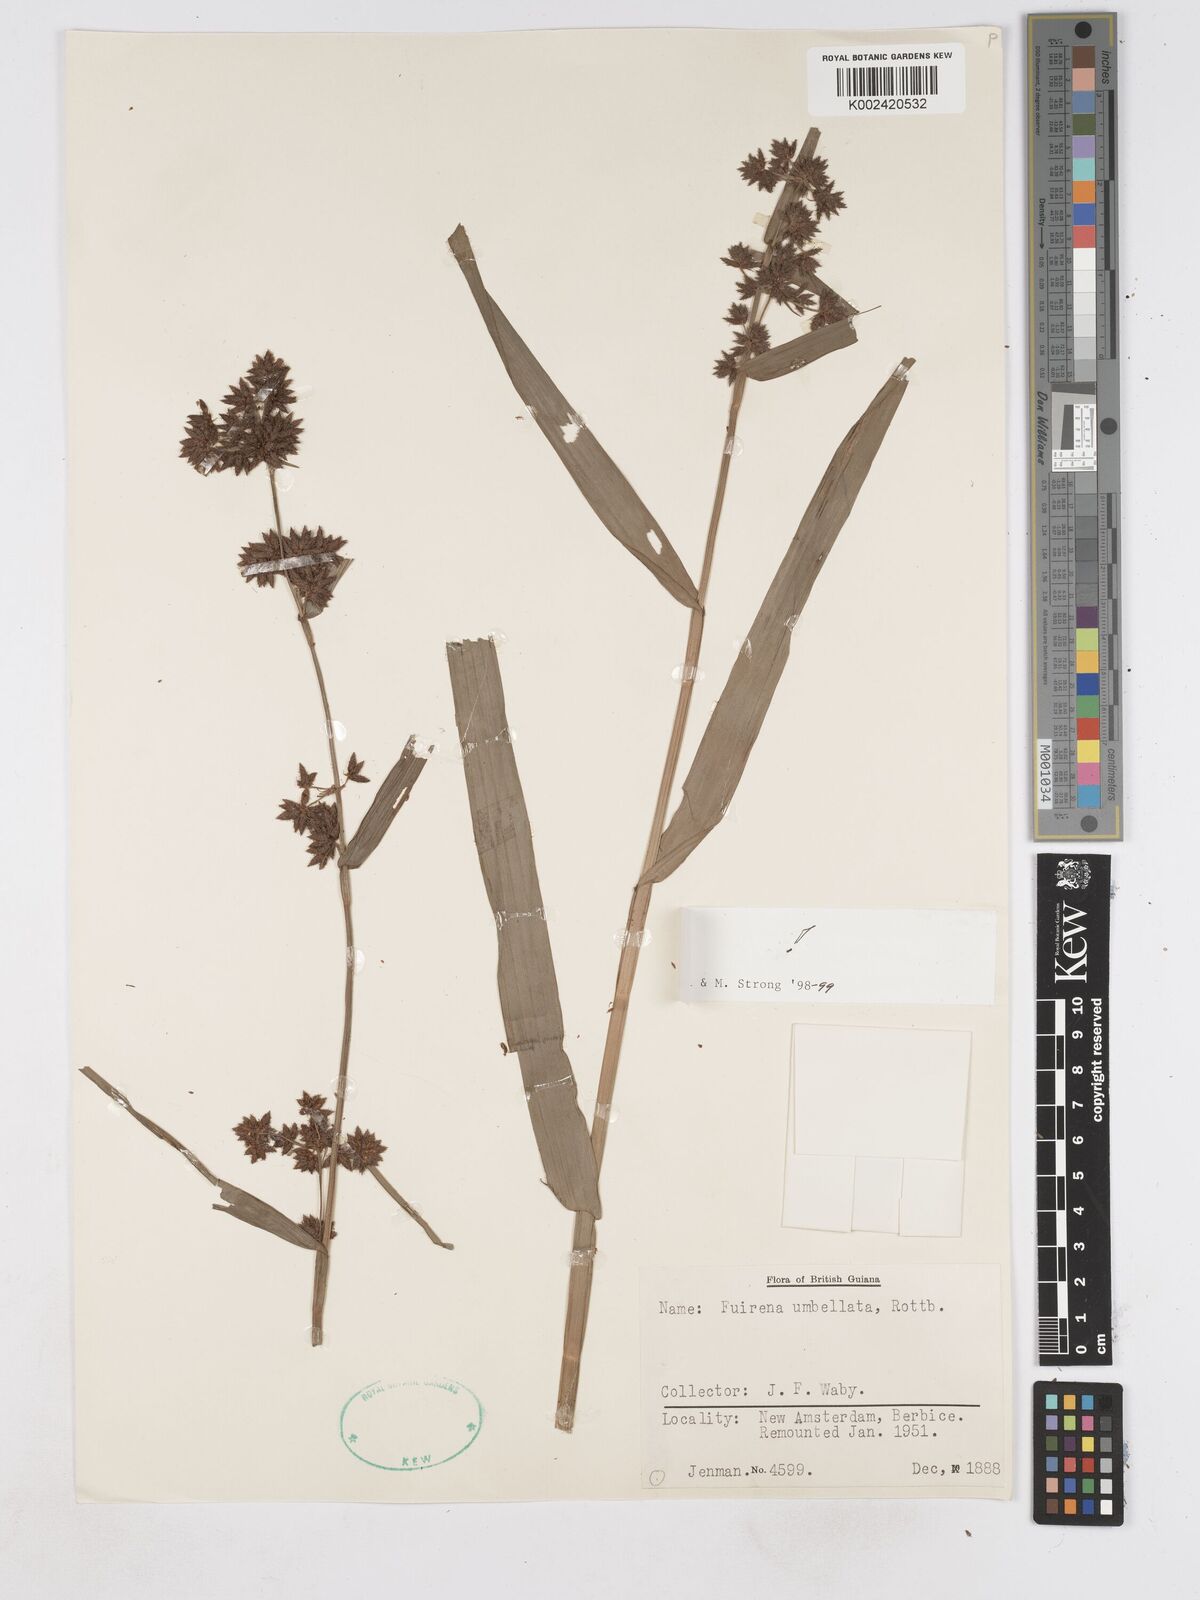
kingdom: Plantae
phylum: Tracheophyta
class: Liliopsida
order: Poales
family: Cyperaceae
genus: Fuirena
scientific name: Fuirena umbellata
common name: Yefen
